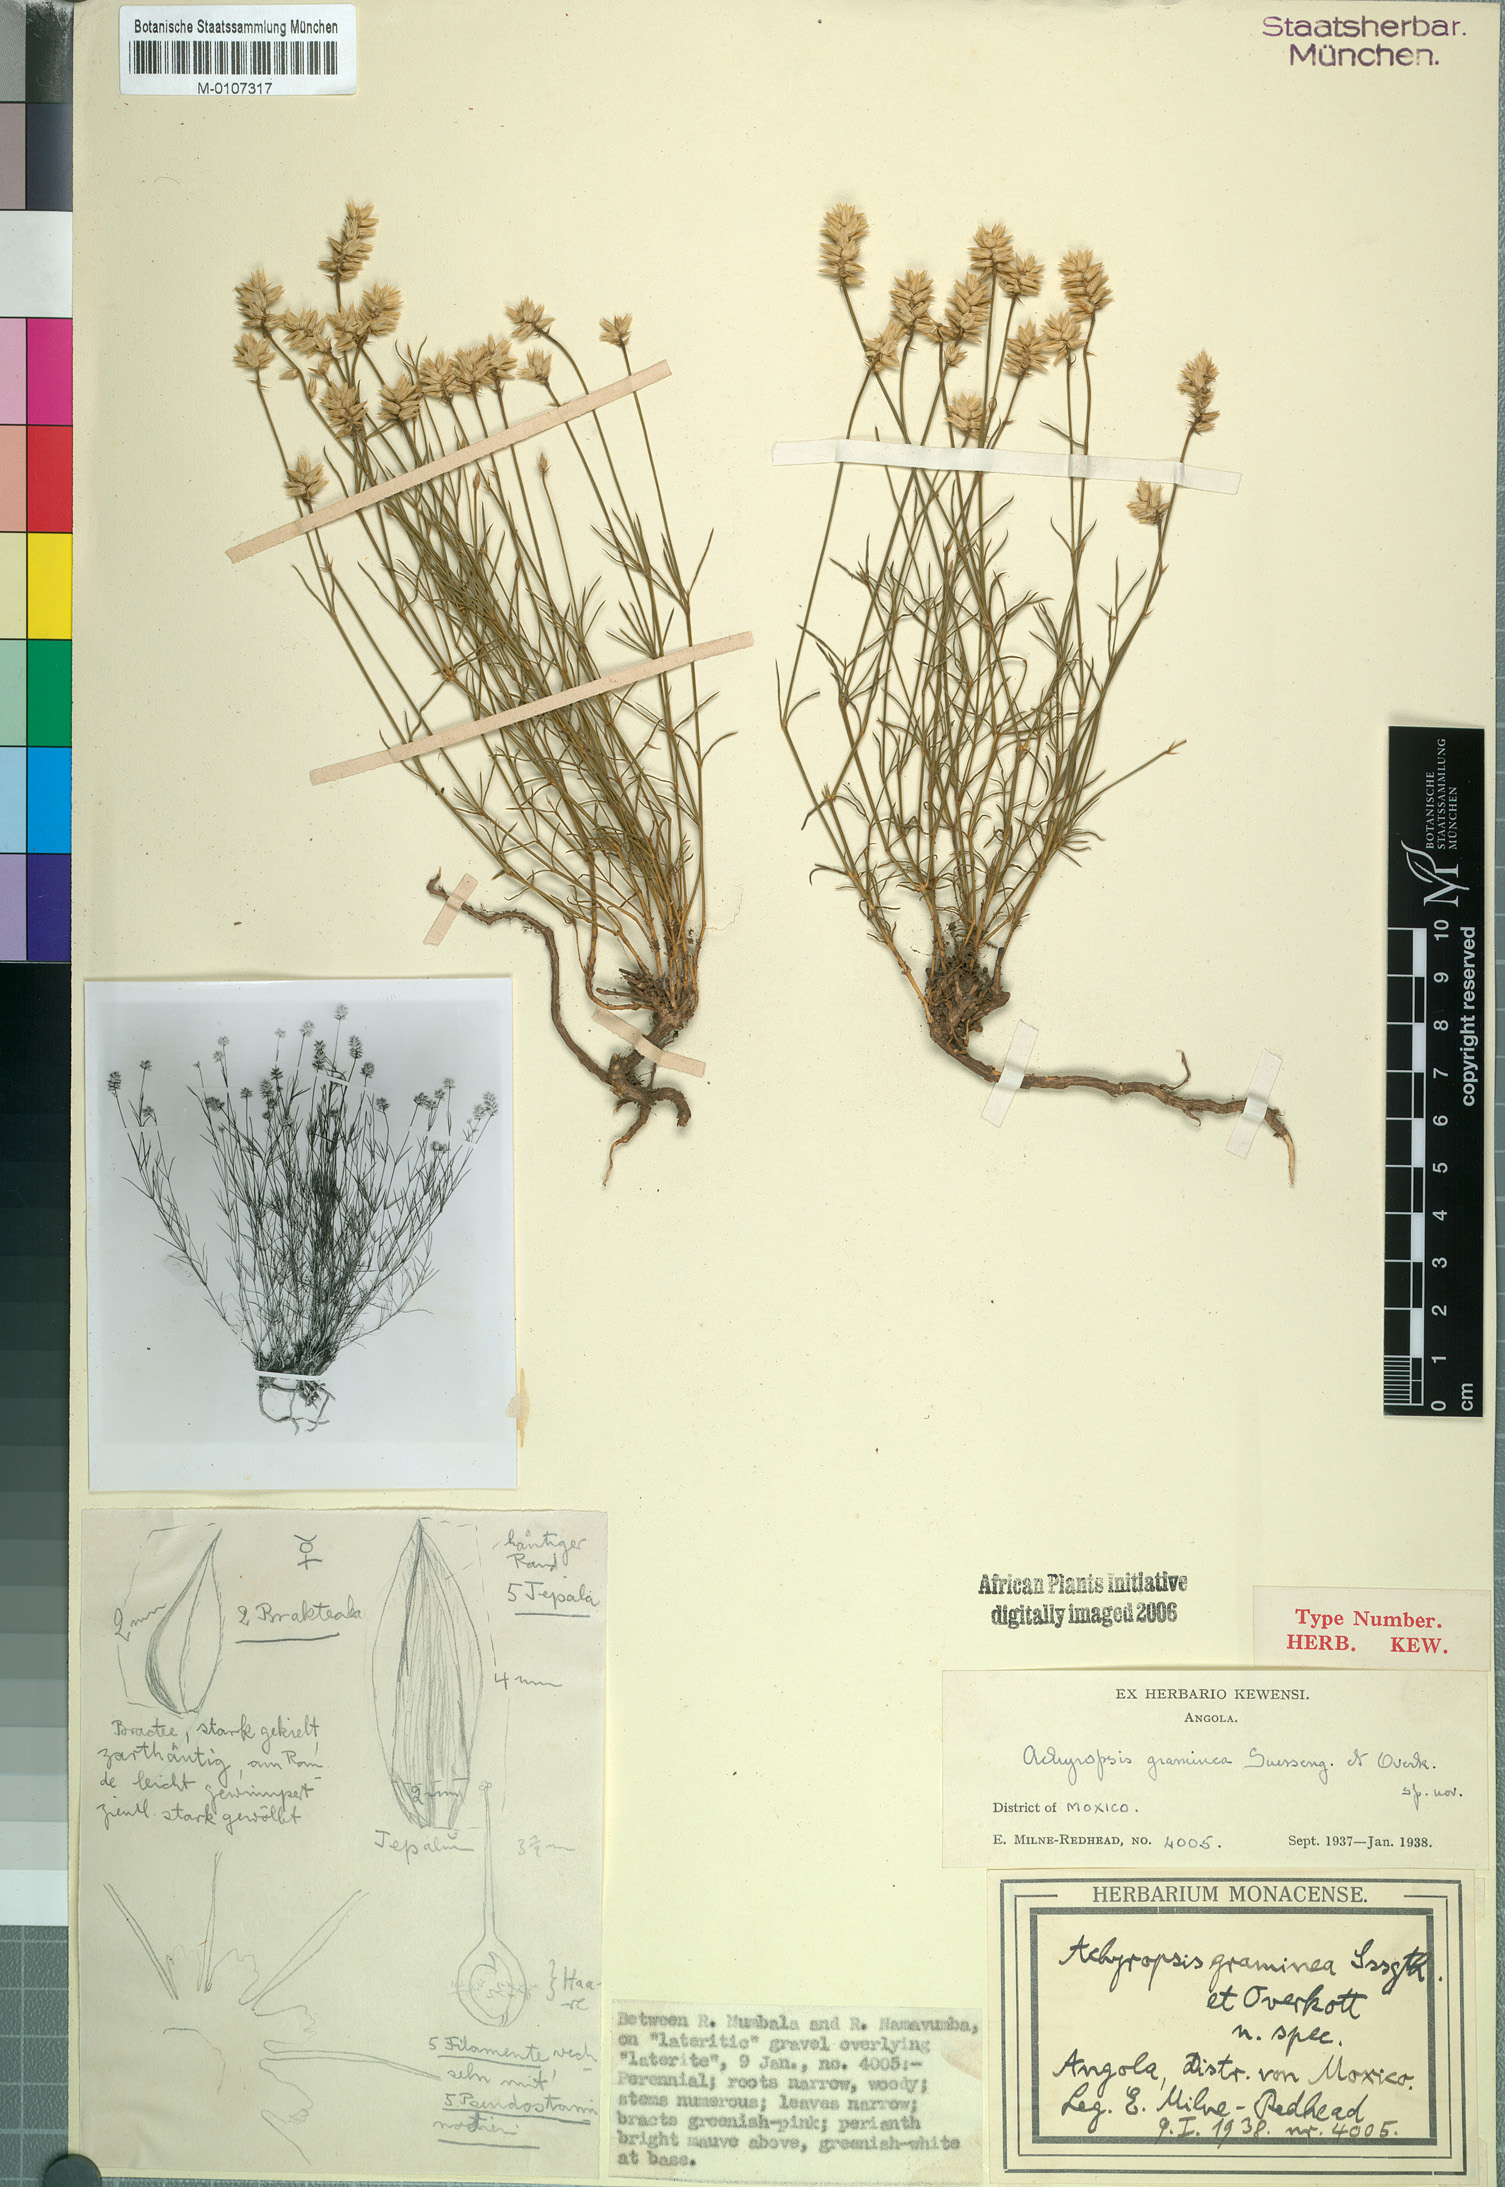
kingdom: Plantae
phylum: Tracheophyta
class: Magnoliopsida
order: Caryophyllales
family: Amaranthaceae
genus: Centemopsis
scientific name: Centemopsis graminea
